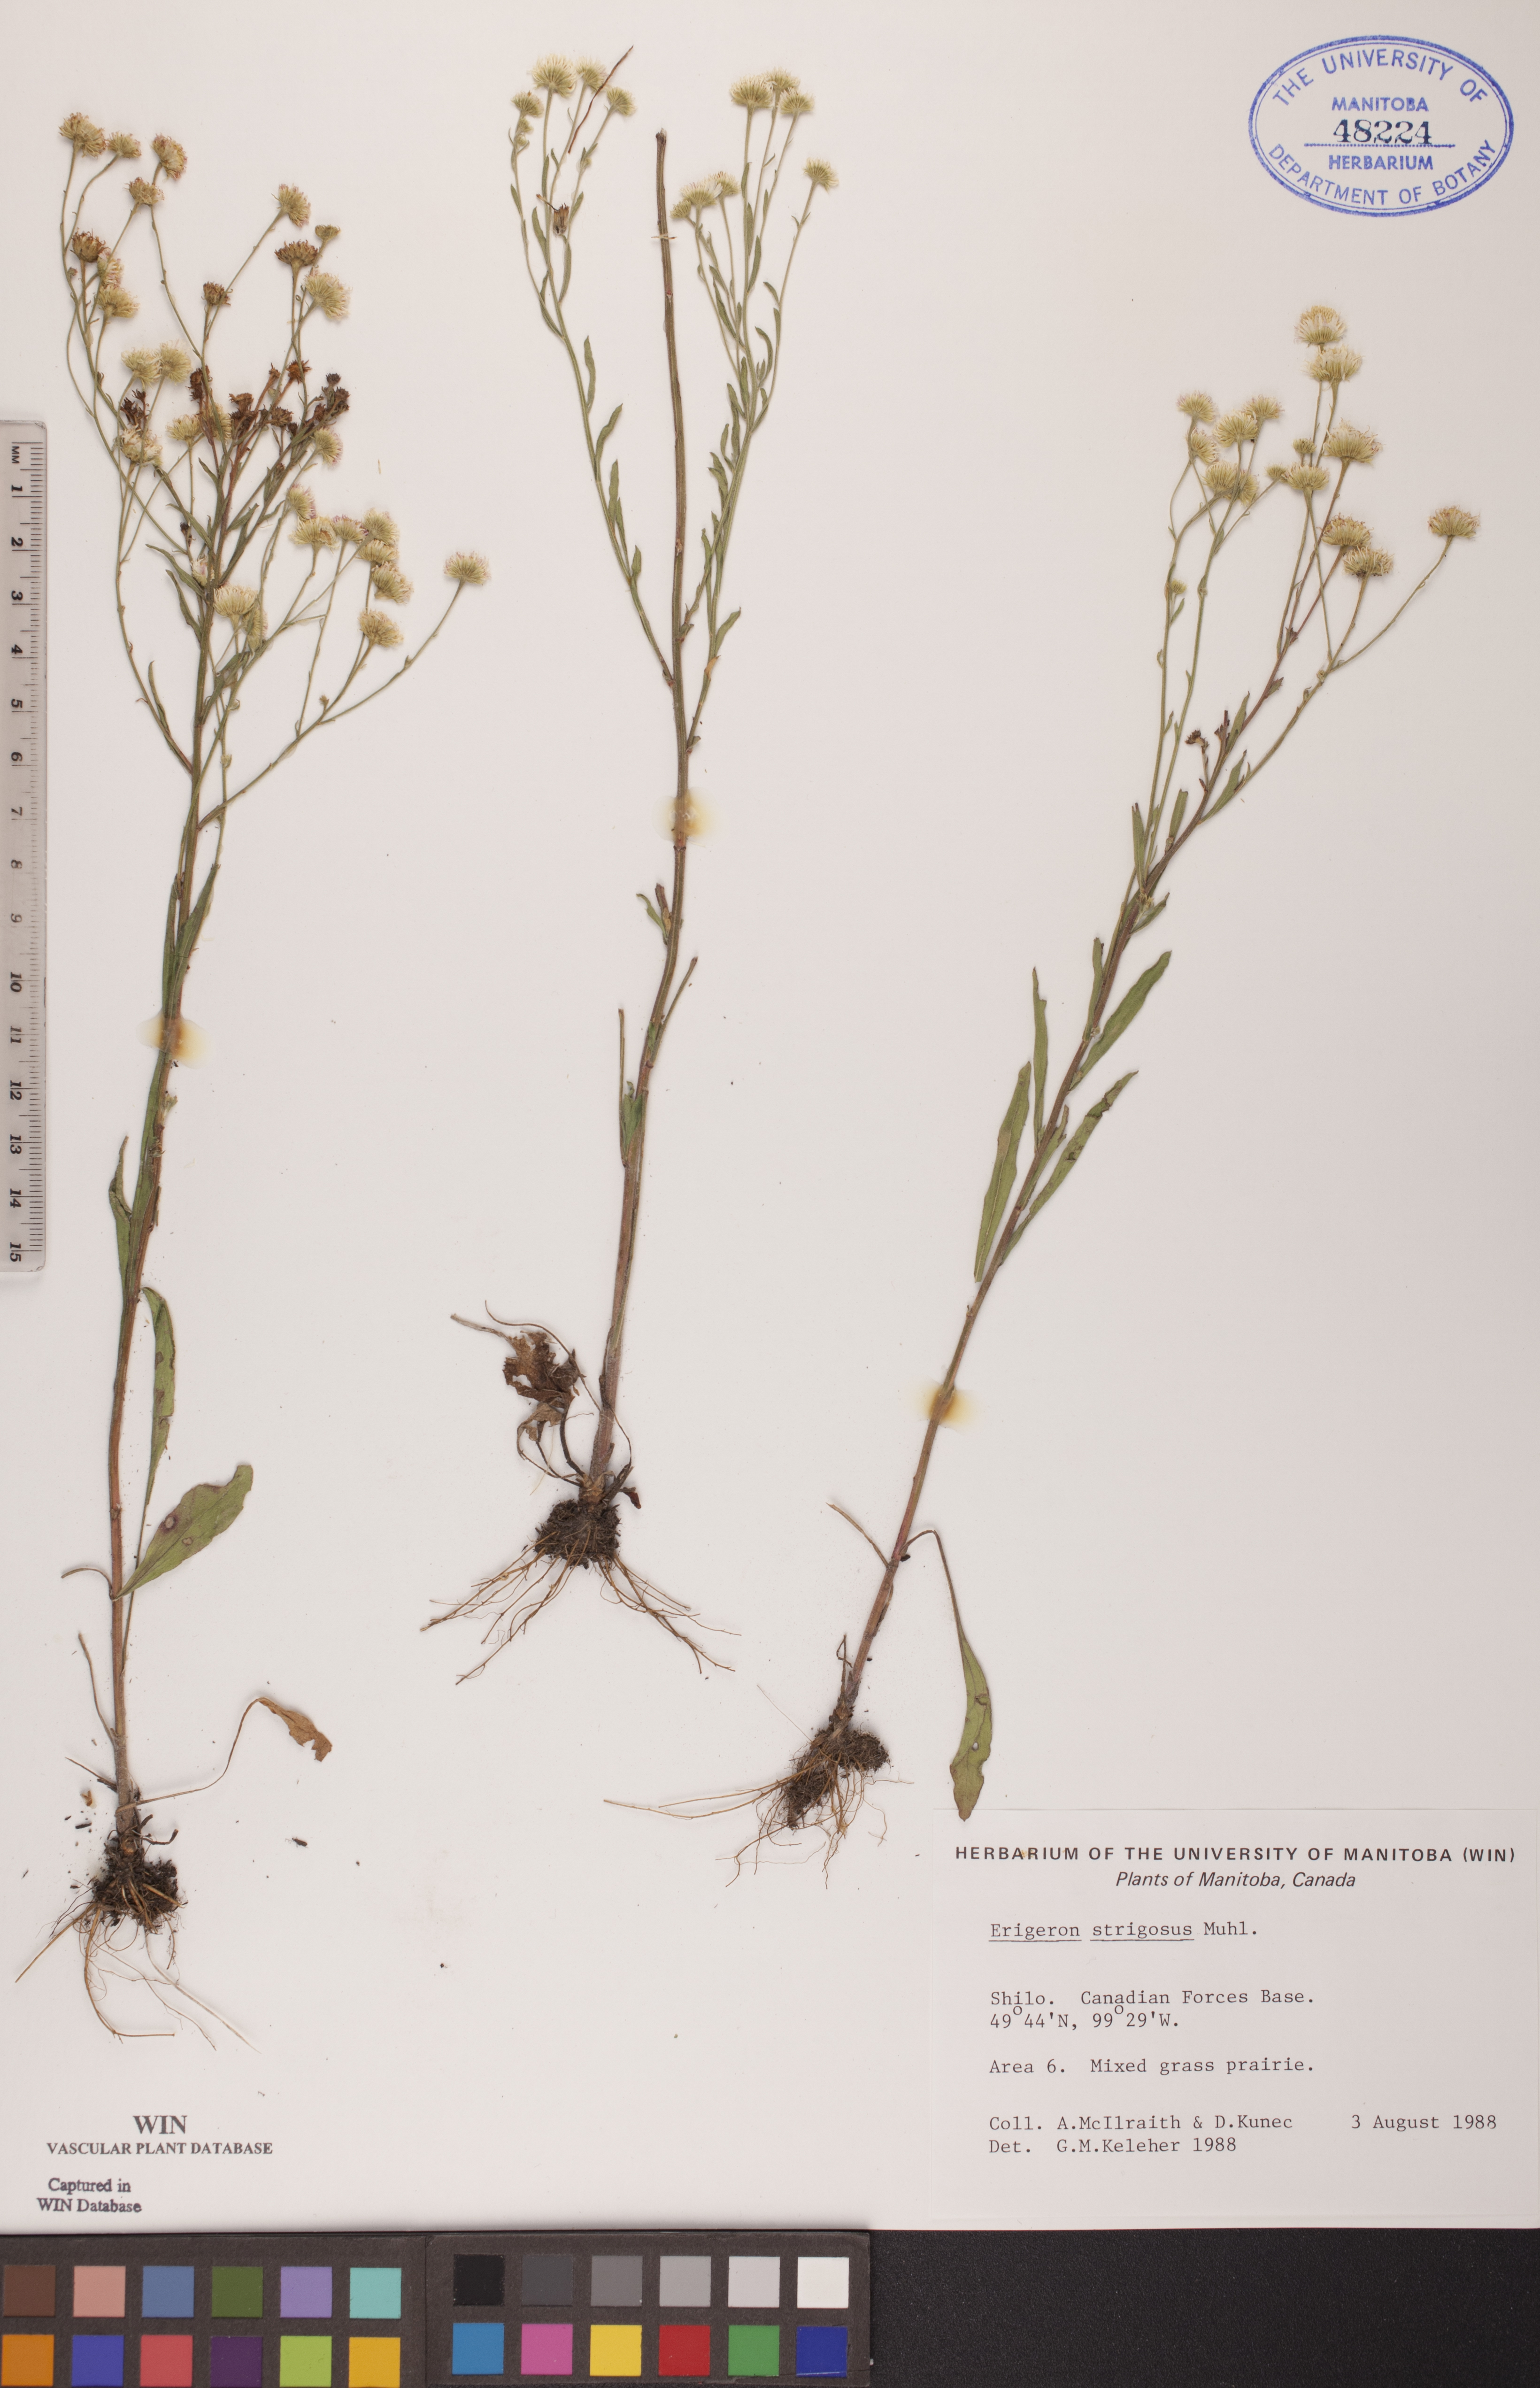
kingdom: Plantae
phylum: Tracheophyta
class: Magnoliopsida
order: Asterales
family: Asteraceae
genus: Erigeron
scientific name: Erigeron strigosus
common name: Common eastern fleabane
